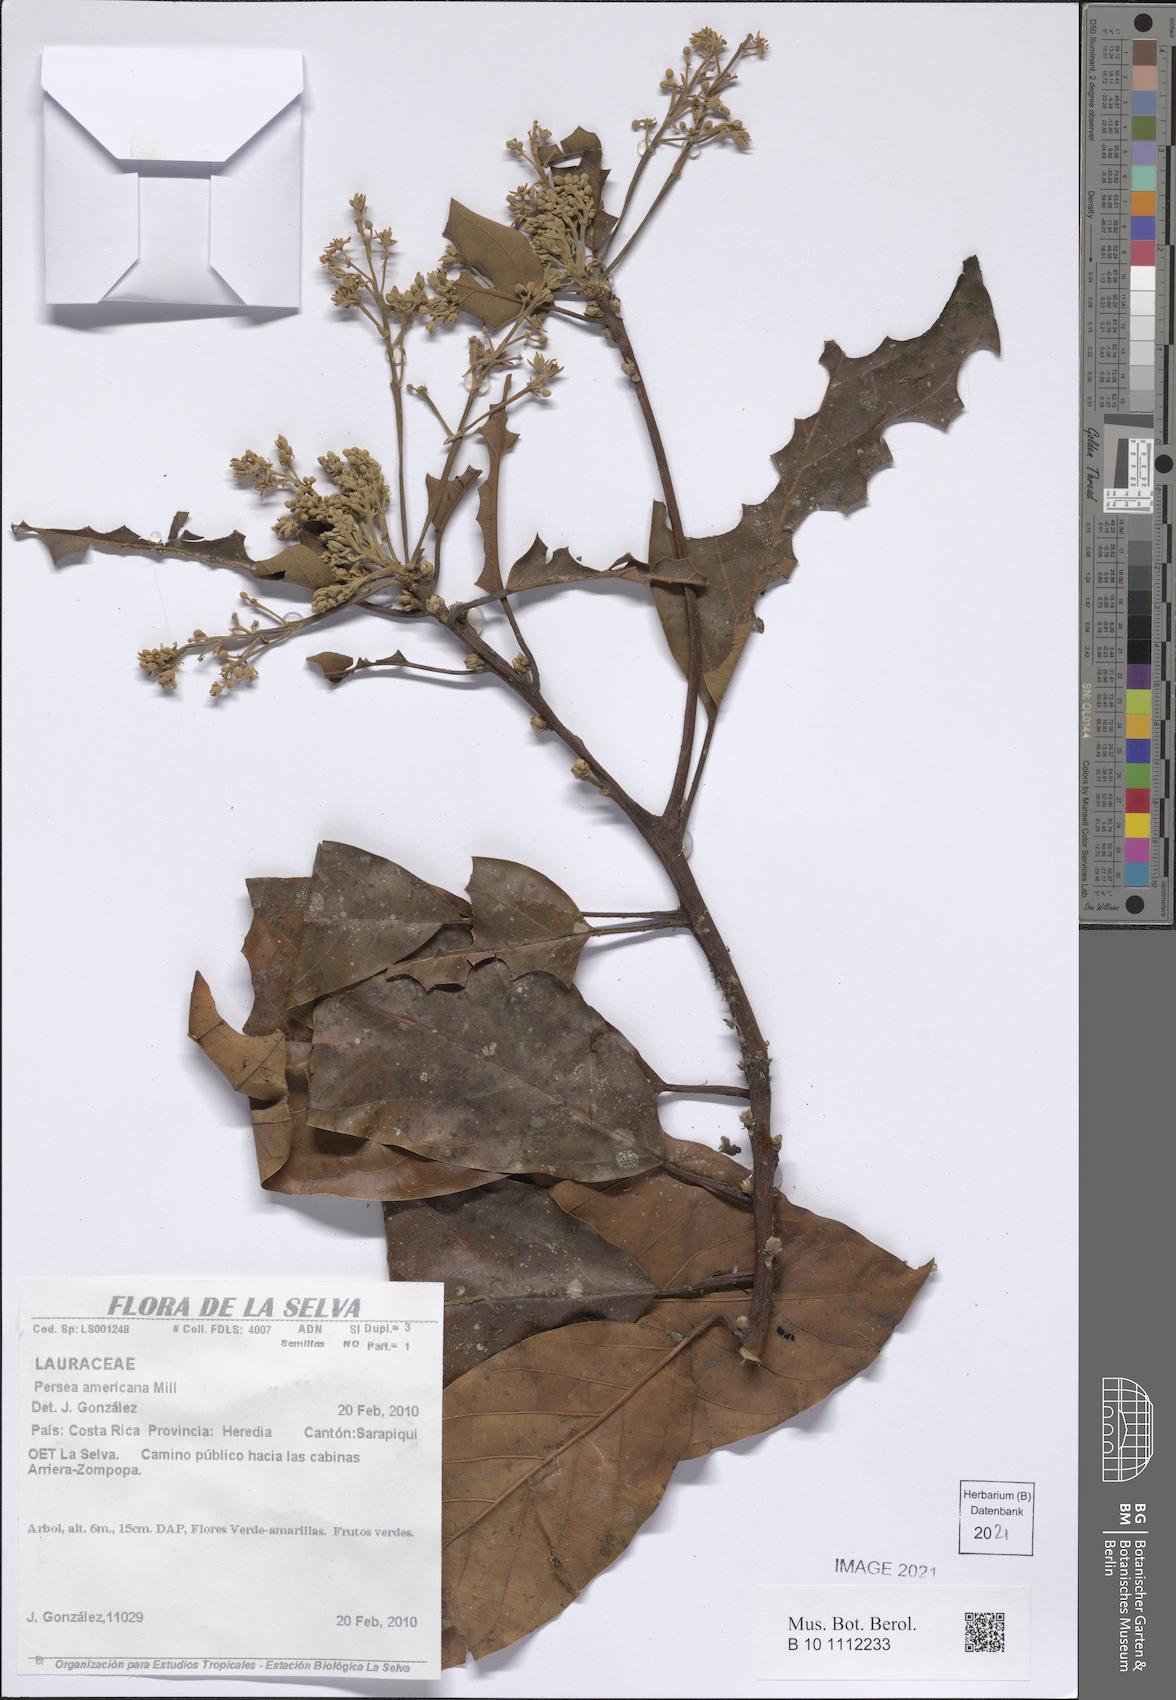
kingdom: Plantae
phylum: Tracheophyta
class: Magnoliopsida
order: Laurales
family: Lauraceae
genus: Persea
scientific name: Persea americana
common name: Avocado
